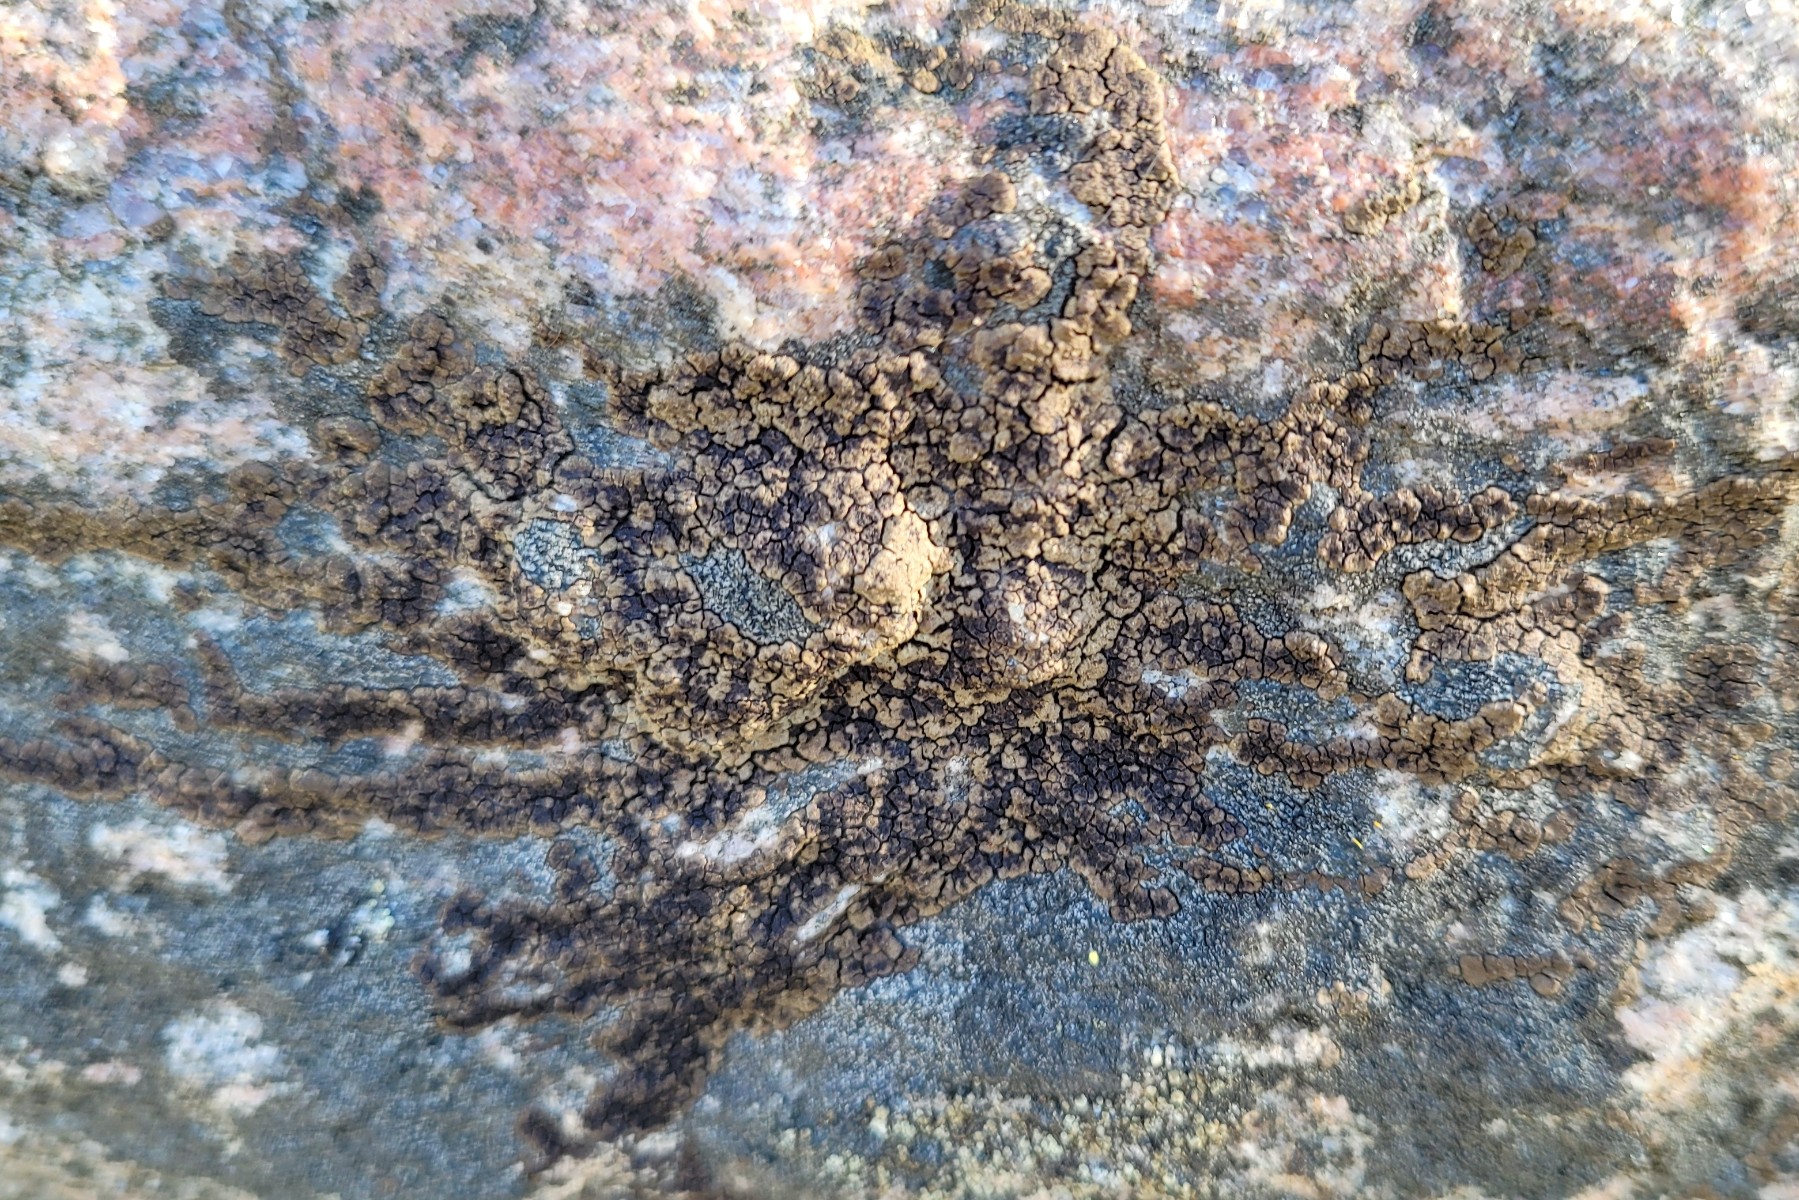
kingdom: Fungi
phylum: Ascomycota
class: Lecanoromycetes
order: Acarosporales
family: Acarosporaceae
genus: Acarospora
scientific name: Acarospora fuscata
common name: brun småsporelav
